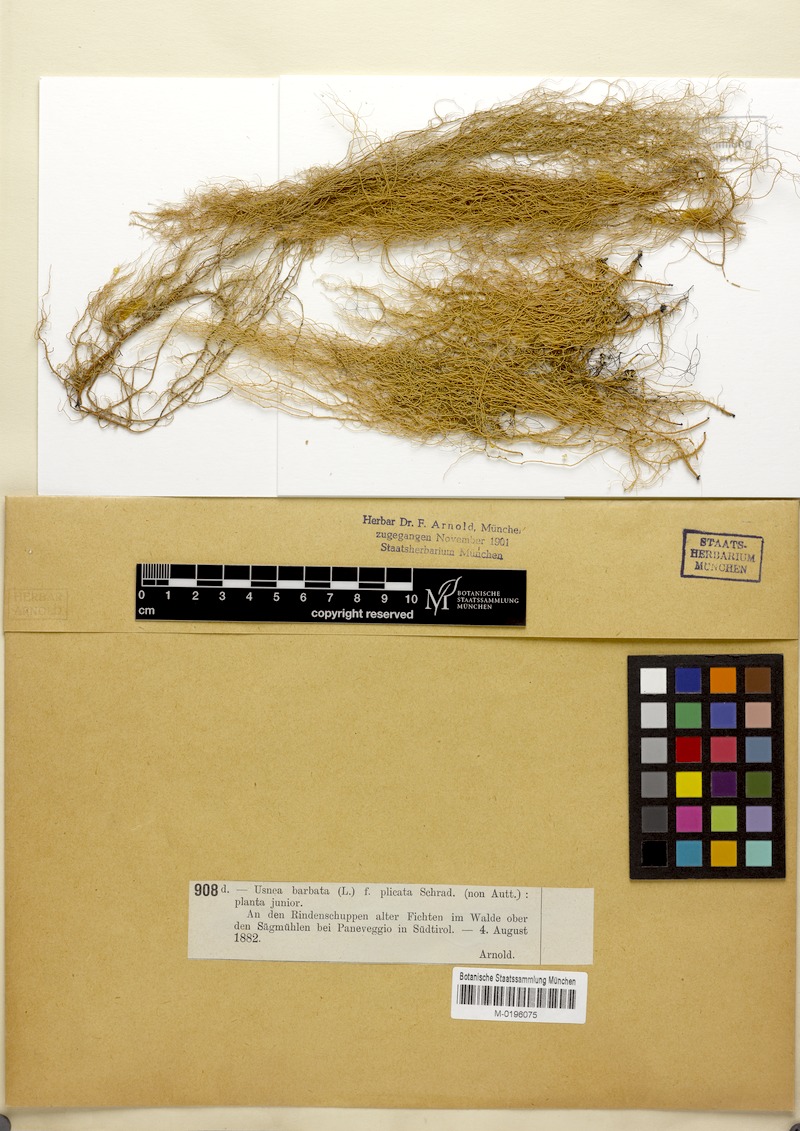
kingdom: Fungi
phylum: Ascomycota
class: Lecanoromycetes
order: Lecanorales
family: Parmeliaceae
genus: Usnea
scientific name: Usnea plicata
